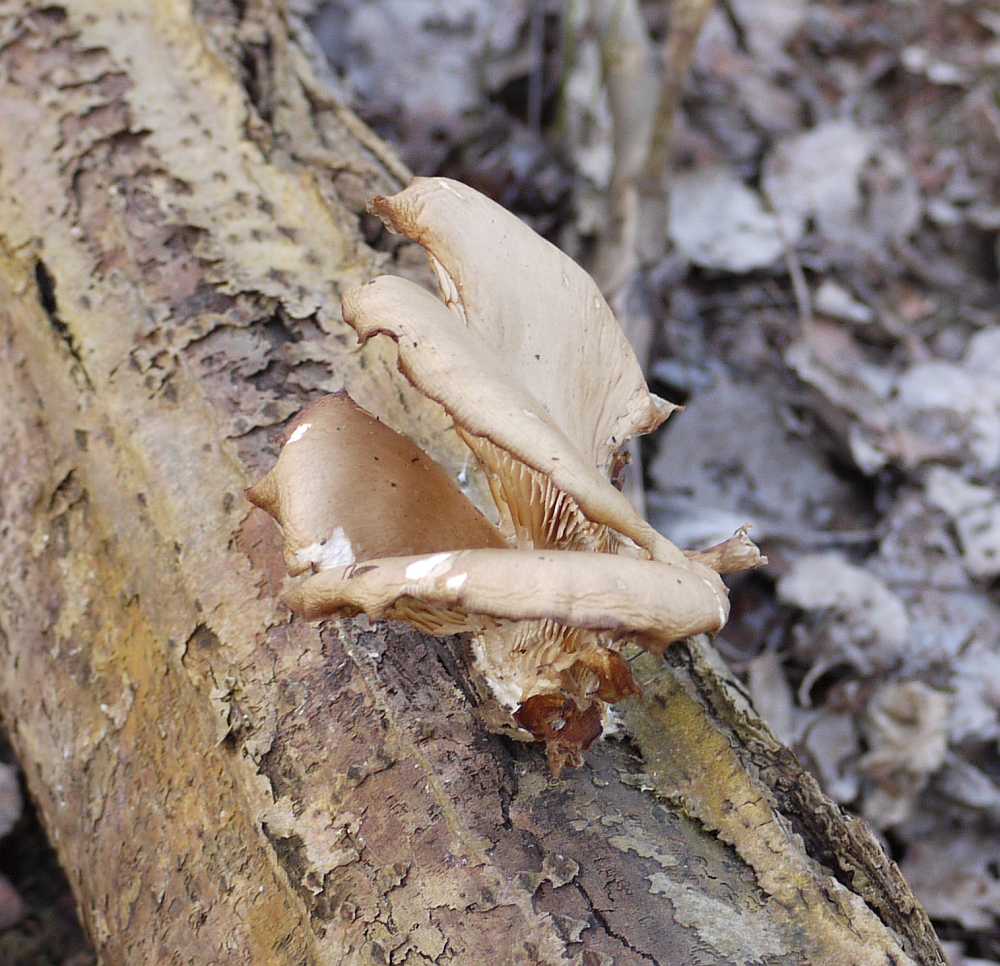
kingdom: Fungi
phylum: Basidiomycota
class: Agaricomycetes
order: Agaricales
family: Pleurotaceae
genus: Pleurotus
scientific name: Pleurotus ostreatus
